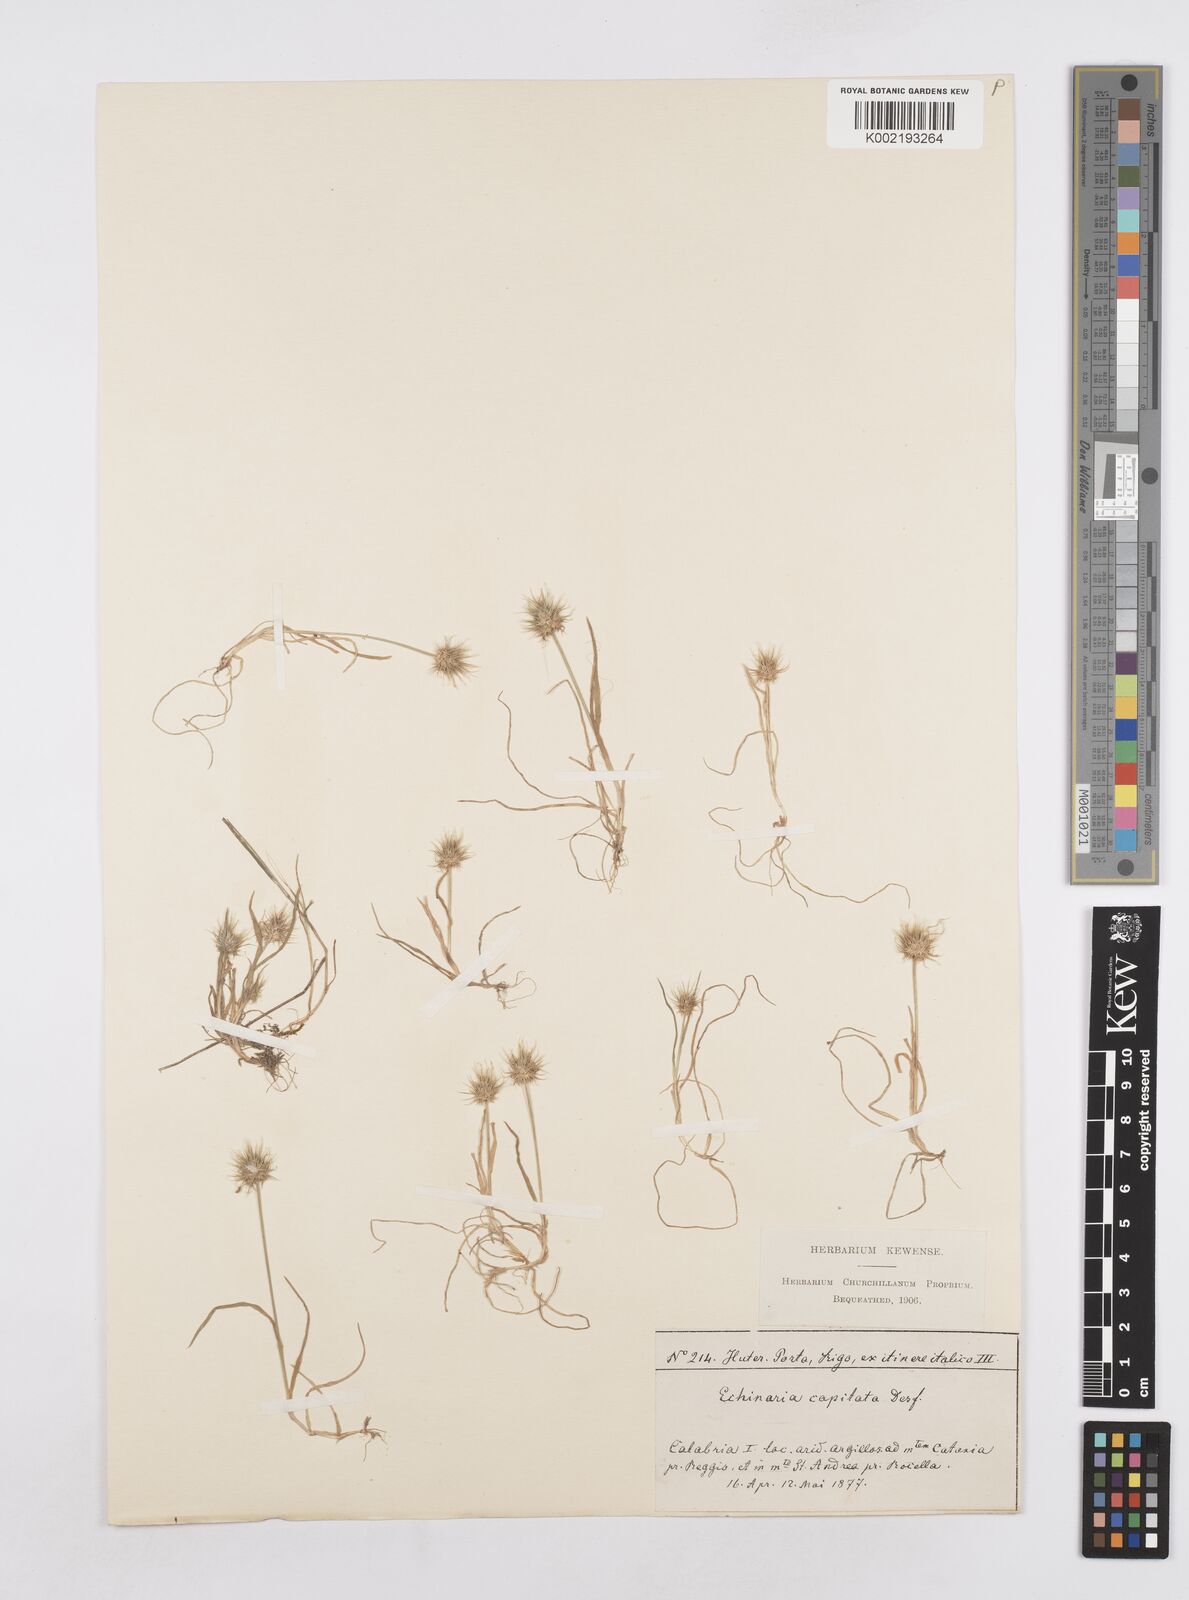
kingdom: Plantae
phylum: Tracheophyta
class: Liliopsida
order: Poales
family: Poaceae
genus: Echinaria
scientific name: Echinaria capitata
